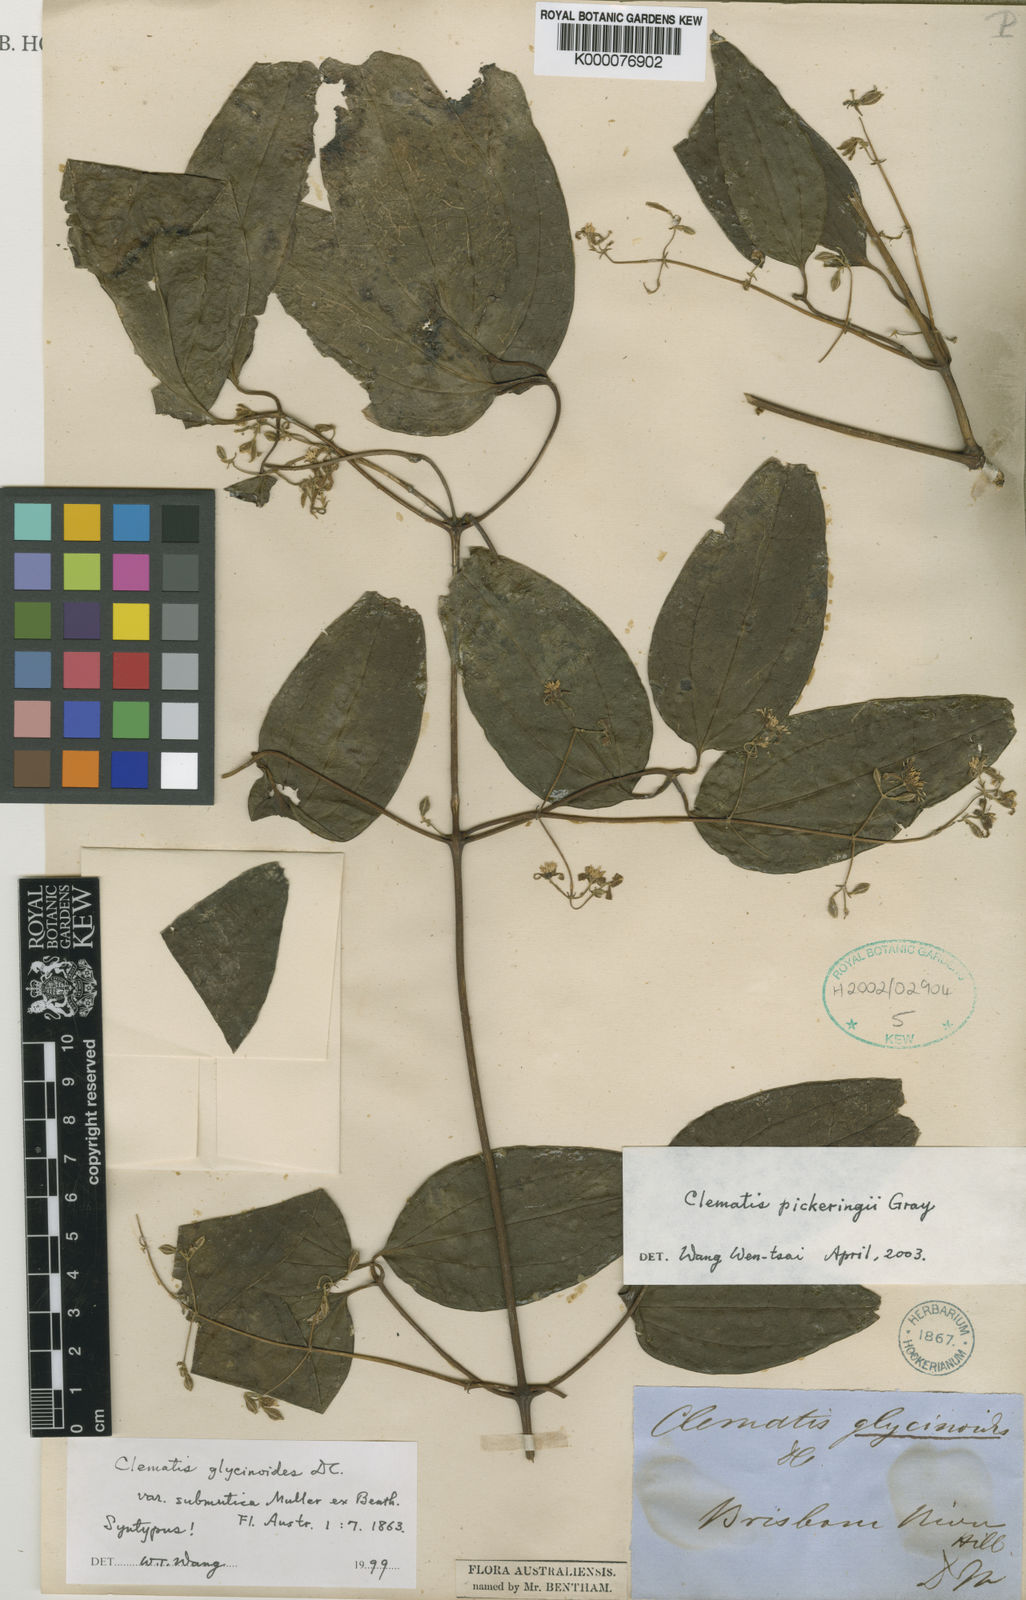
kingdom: Plantae
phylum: Tracheophyta
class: Magnoliopsida
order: Ranunculales
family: Ranunculaceae
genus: Clematis
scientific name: Clematis pickeringii
